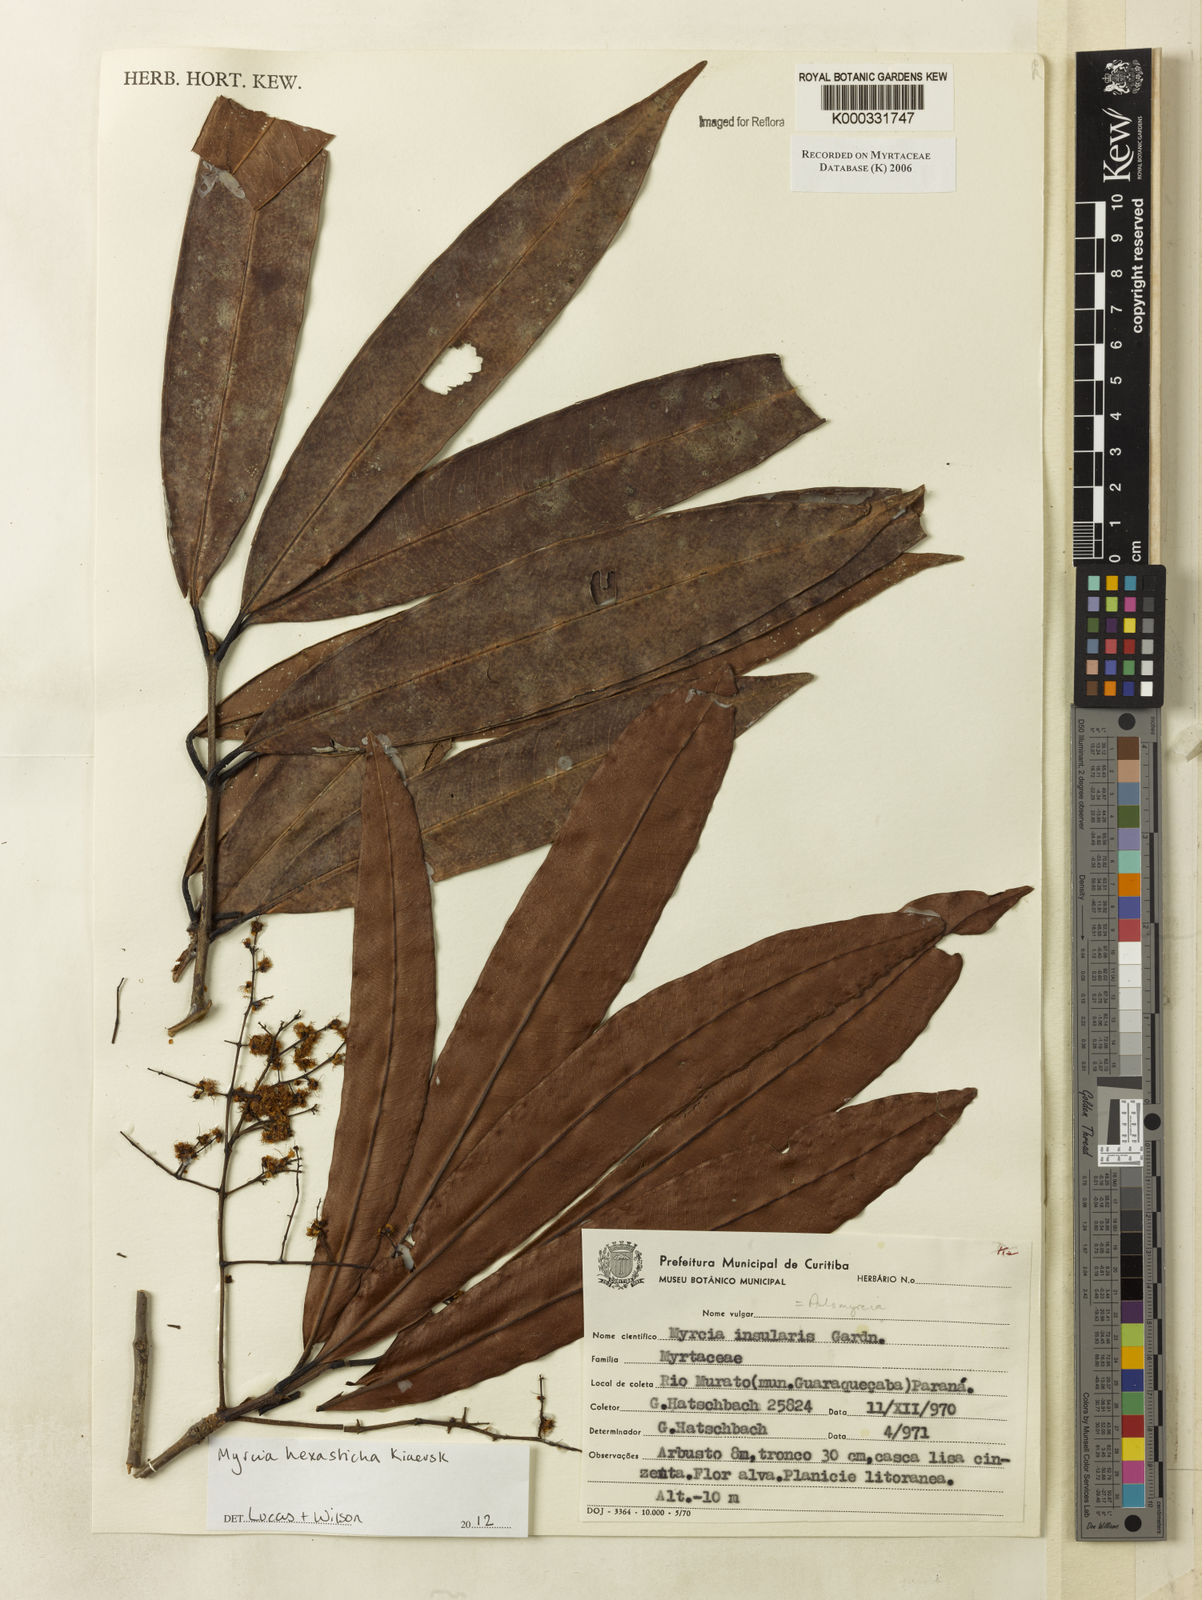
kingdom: Plantae
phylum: Tracheophyta
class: Magnoliopsida
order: Myrtales
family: Myrtaceae
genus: Myrcia
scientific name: Myrcia insularis
